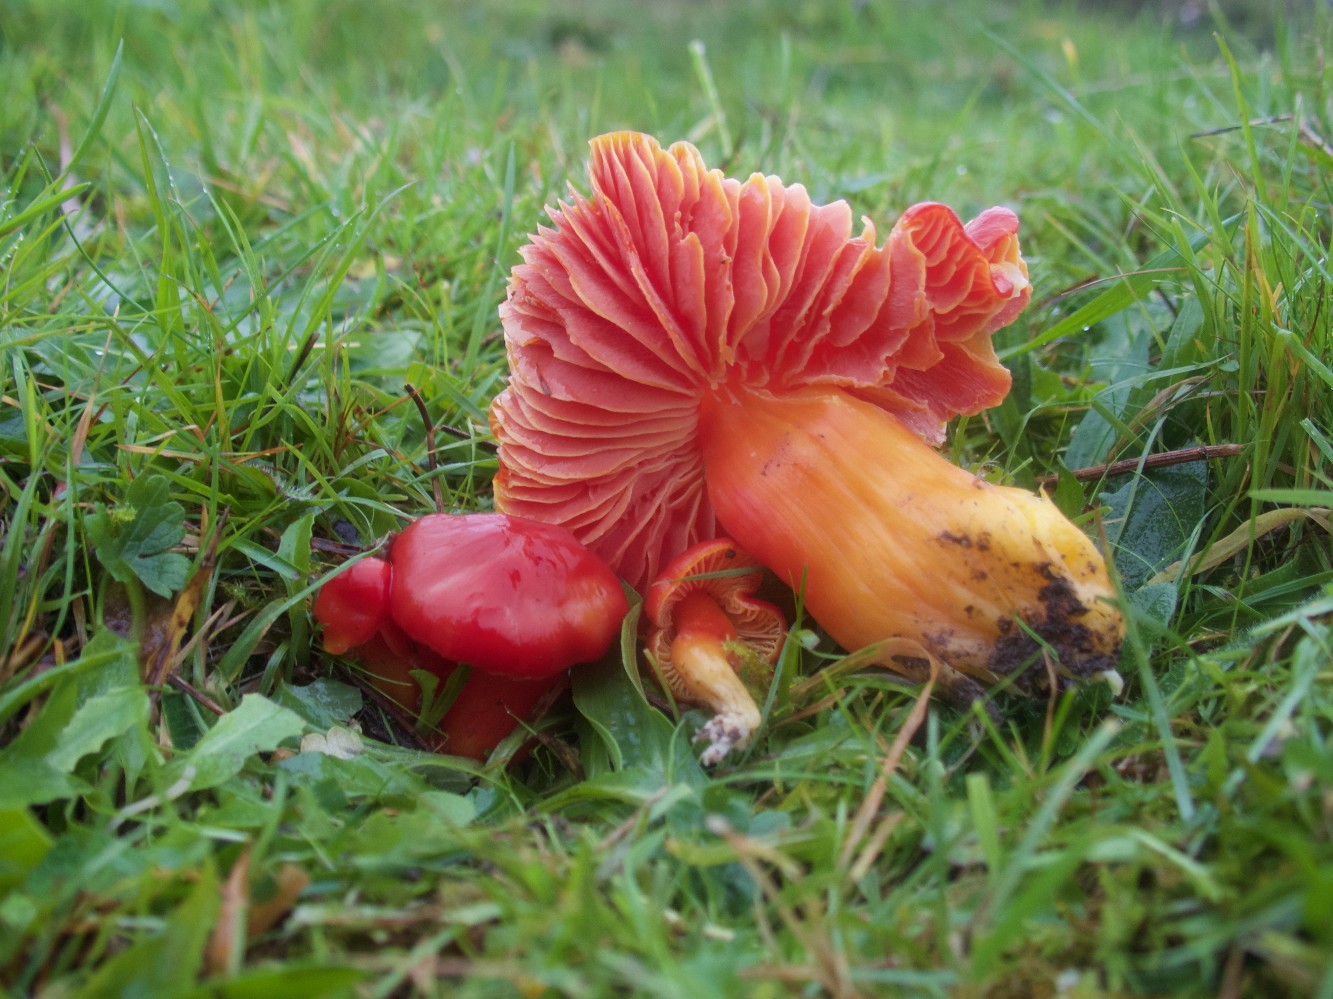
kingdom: Fungi
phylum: Basidiomycota
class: Agaricomycetes
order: Agaricales
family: Hygrophoraceae
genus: Hygrocybe
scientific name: Hygrocybe splendidissima
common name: knaldrød vokshat
